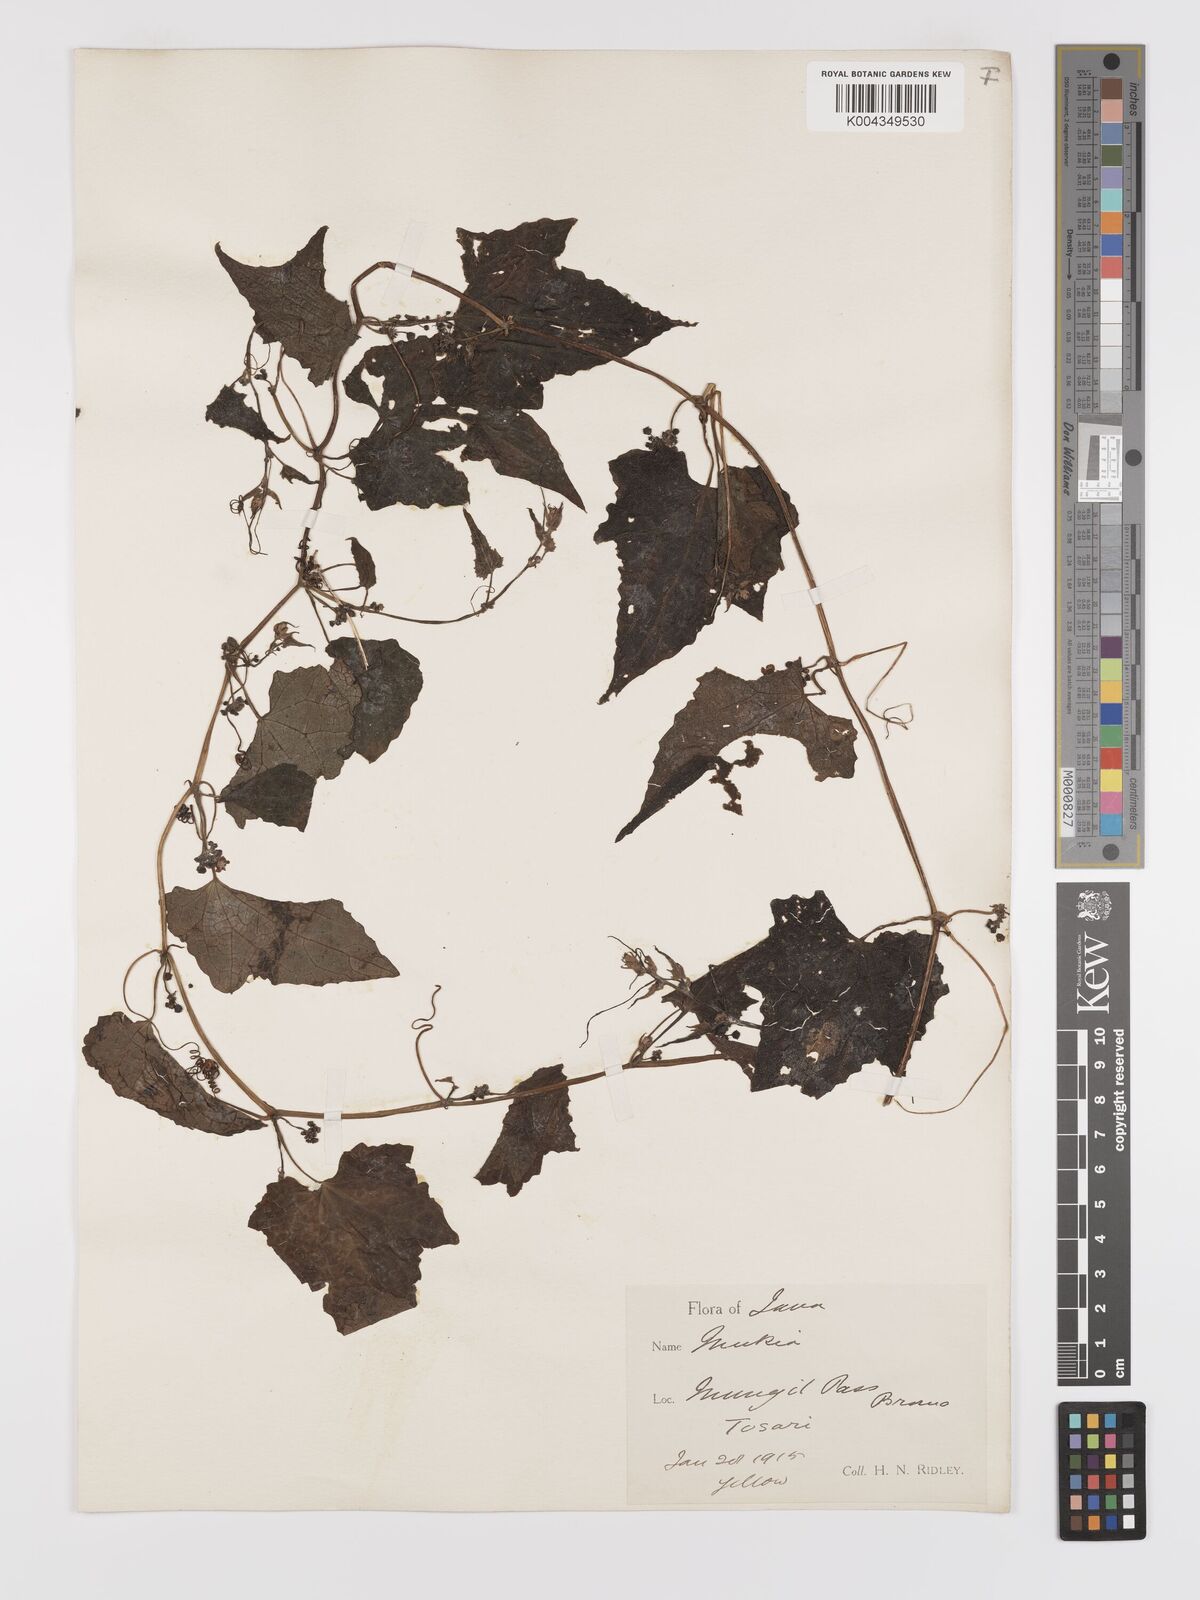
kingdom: Plantae
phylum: Tracheophyta
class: Magnoliopsida
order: Cucurbitales
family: Cucurbitaceae
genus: Zehneria
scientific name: Zehneria scabra
